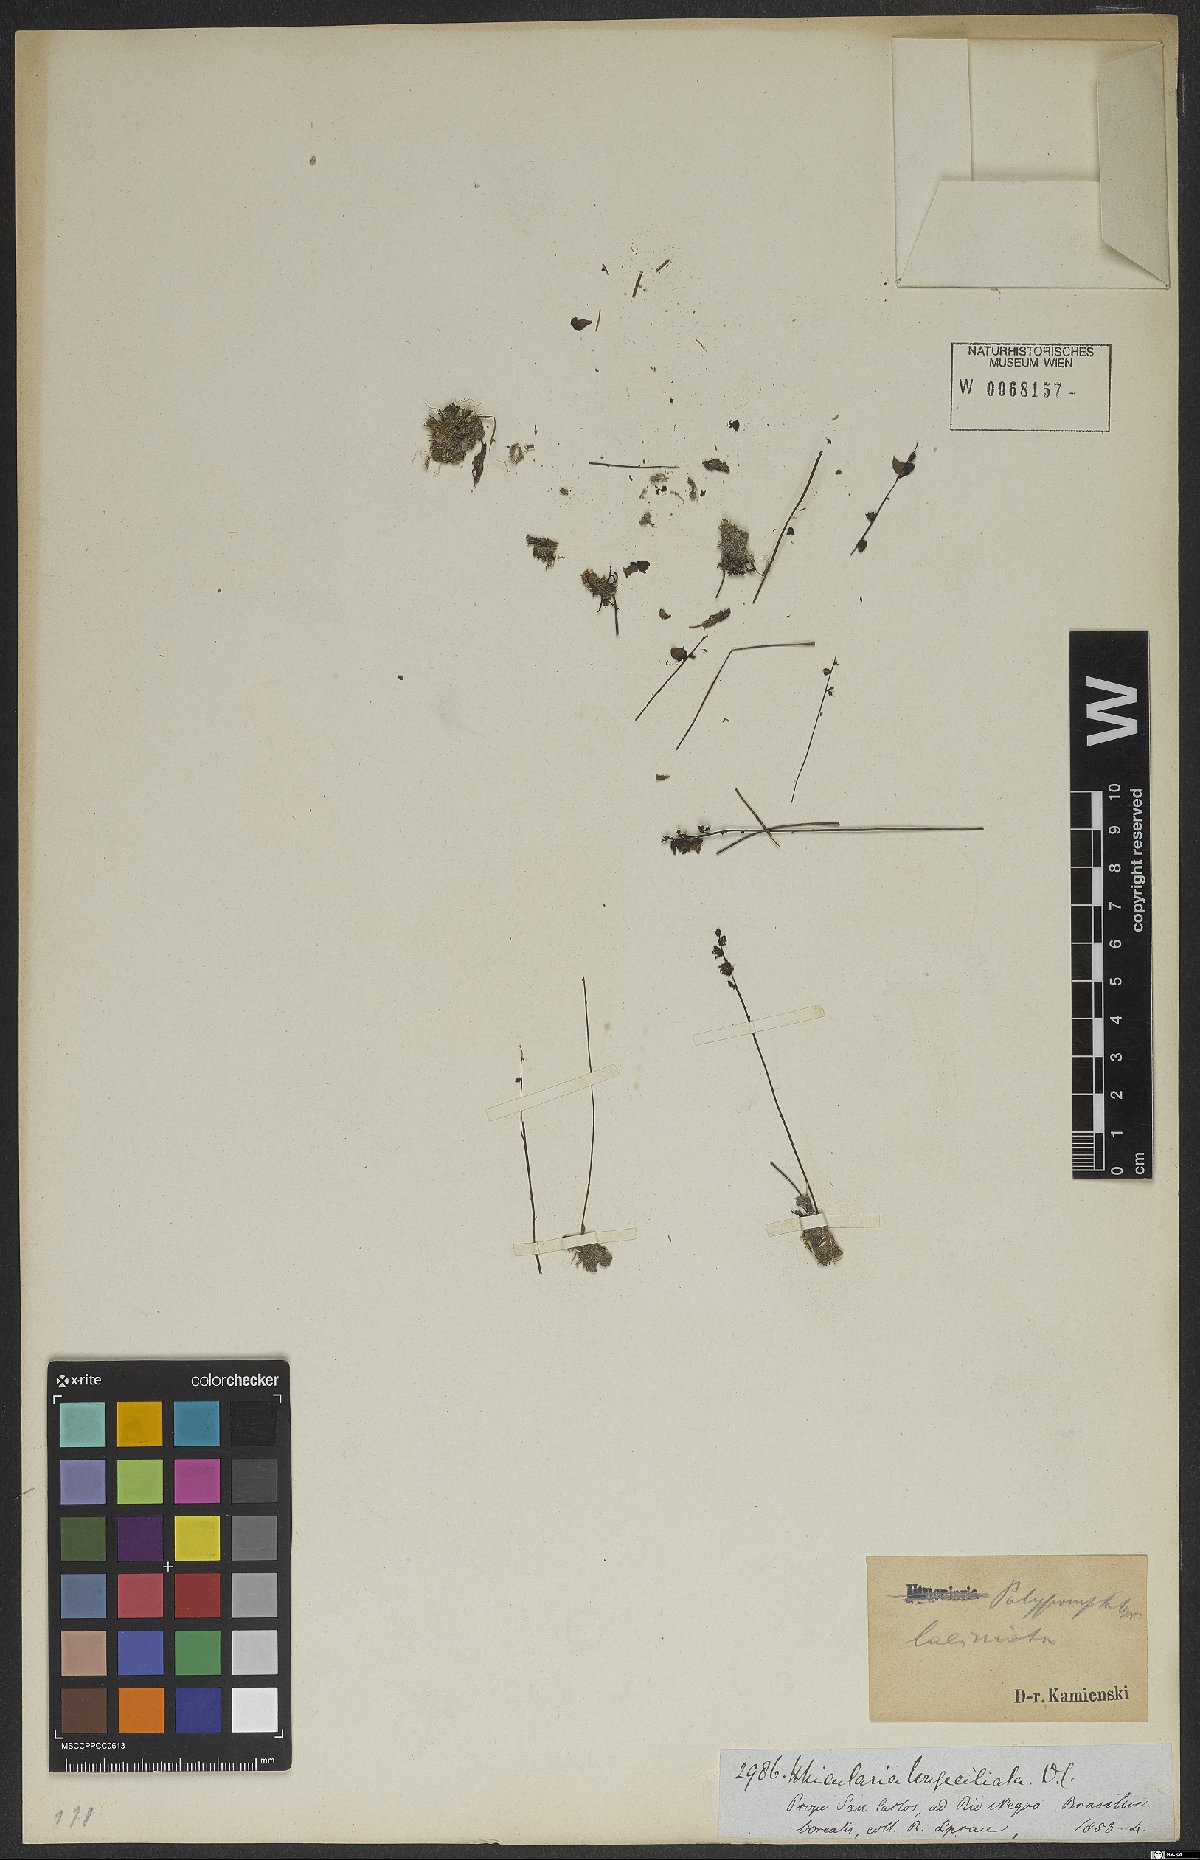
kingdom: Plantae
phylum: Tracheophyta
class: Magnoliopsida
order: Lamiales
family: Lentibulariaceae
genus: Utricularia
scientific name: Utricularia laciniata
